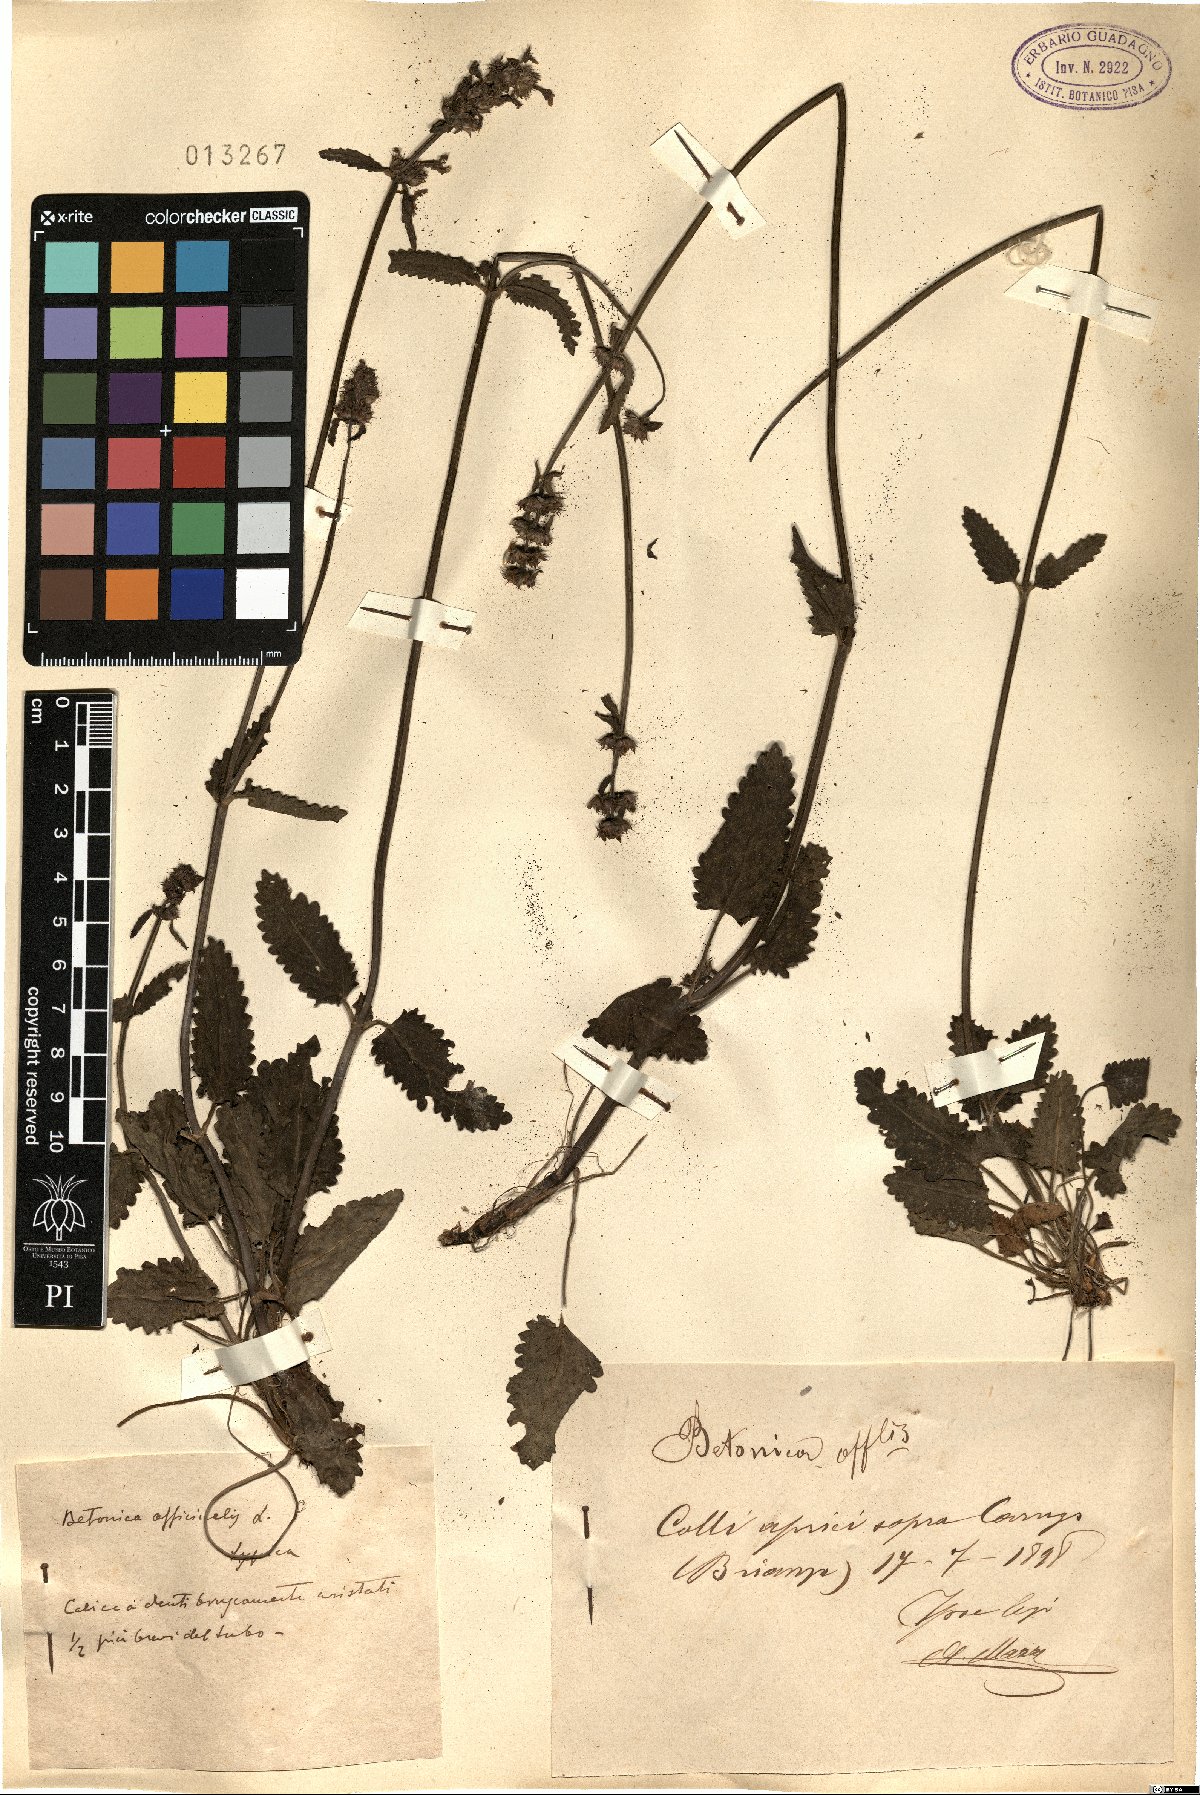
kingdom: Plantae
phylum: Tracheophyta
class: Magnoliopsida
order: Lamiales
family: Lamiaceae
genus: Betonica
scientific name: Betonica officinalis
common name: Bishop's-wort
